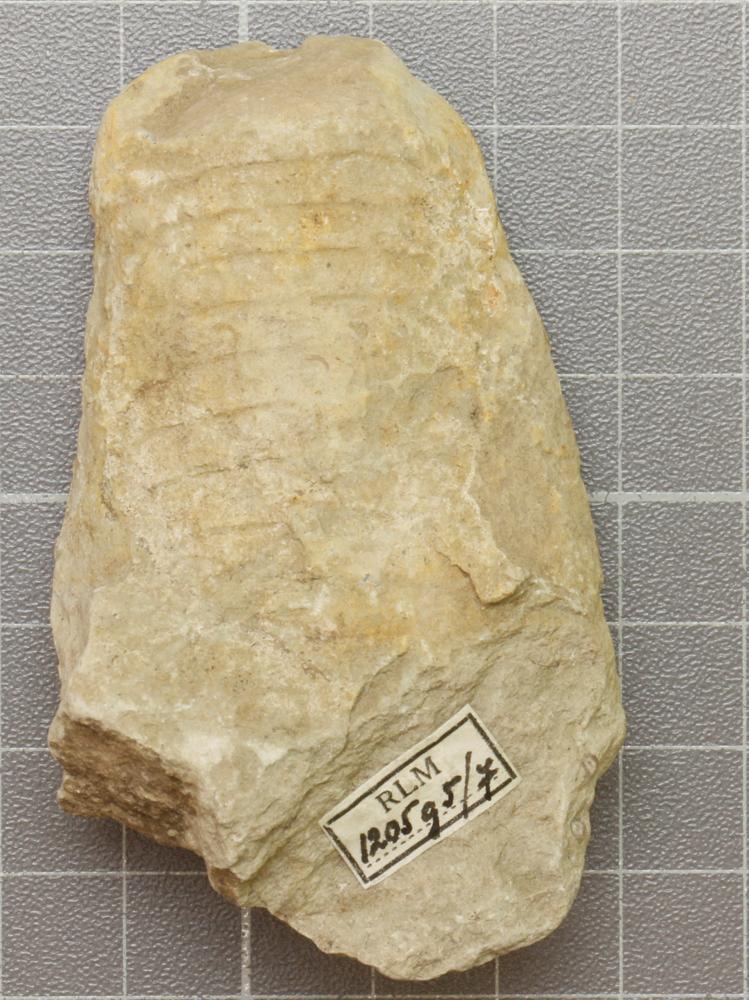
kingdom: Animalia
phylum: Mollusca
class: Cephalopoda
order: Nautilida
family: Nautilidae
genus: Richardsonoceras
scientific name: Richardsonoceras sinuososeptatum
